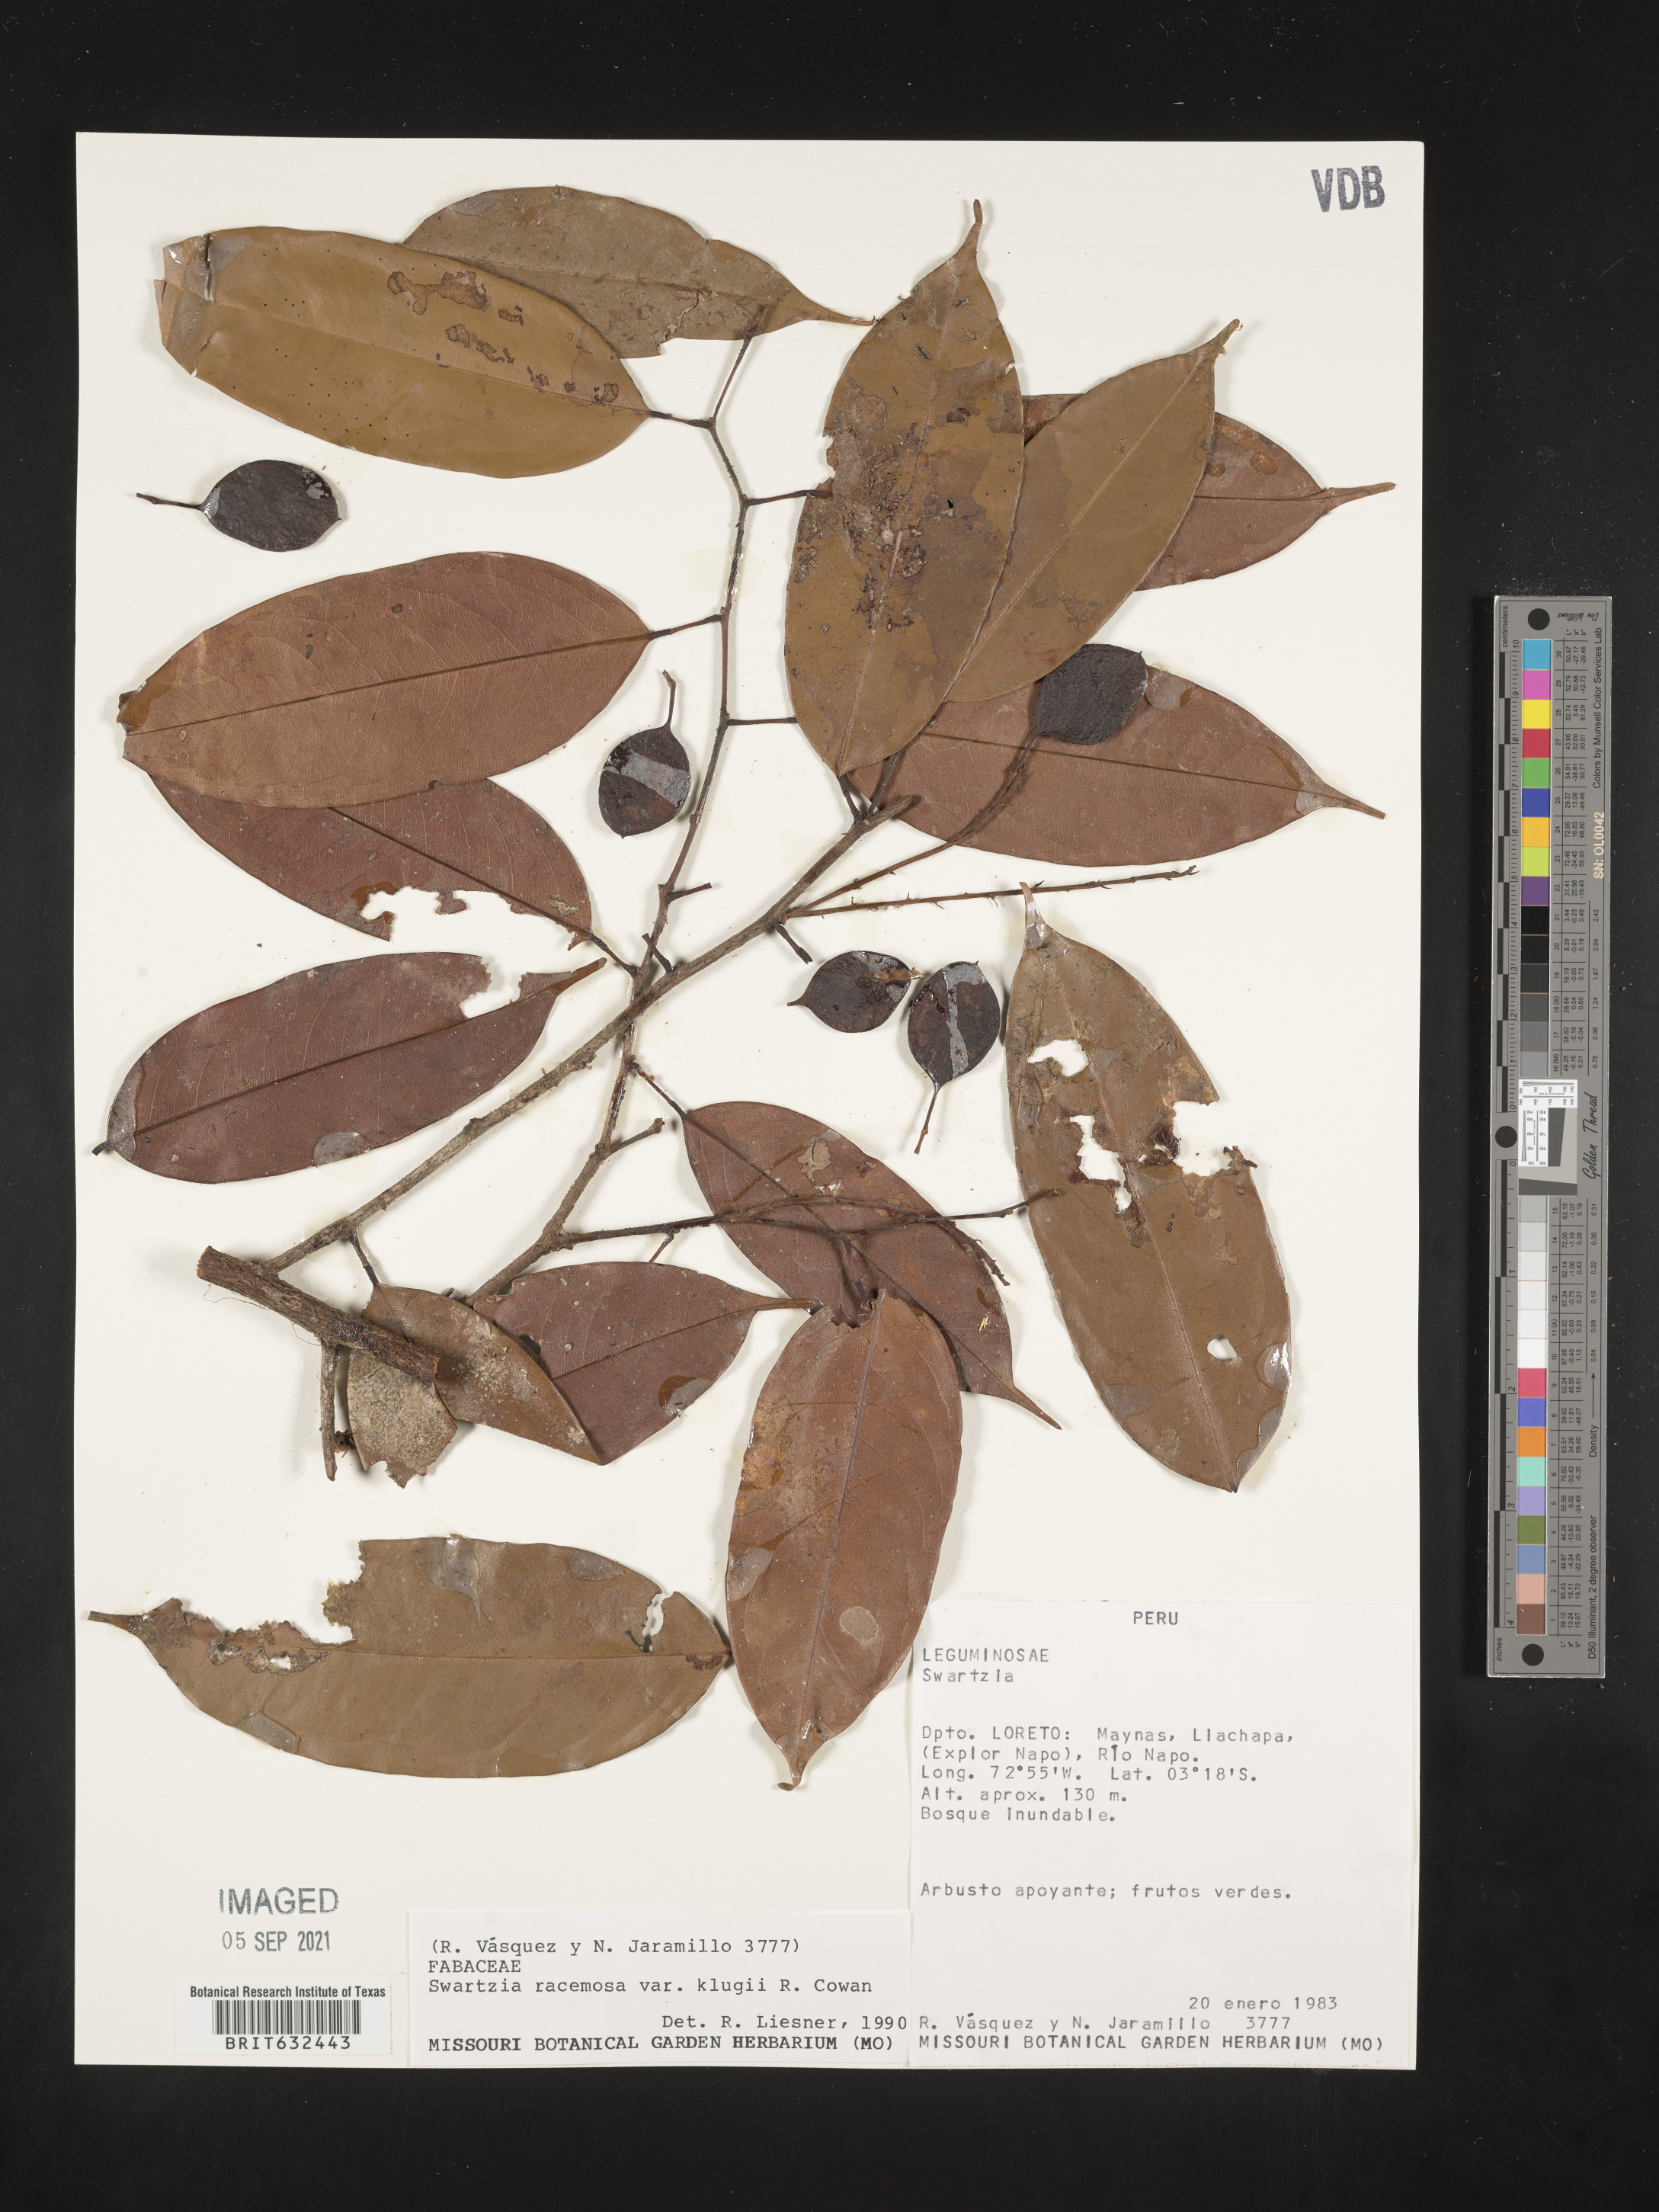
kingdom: Plantae
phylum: Tracheophyta
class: Magnoliopsida
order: Fabales
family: Fabaceae
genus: Swartzia
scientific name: Swartzia
